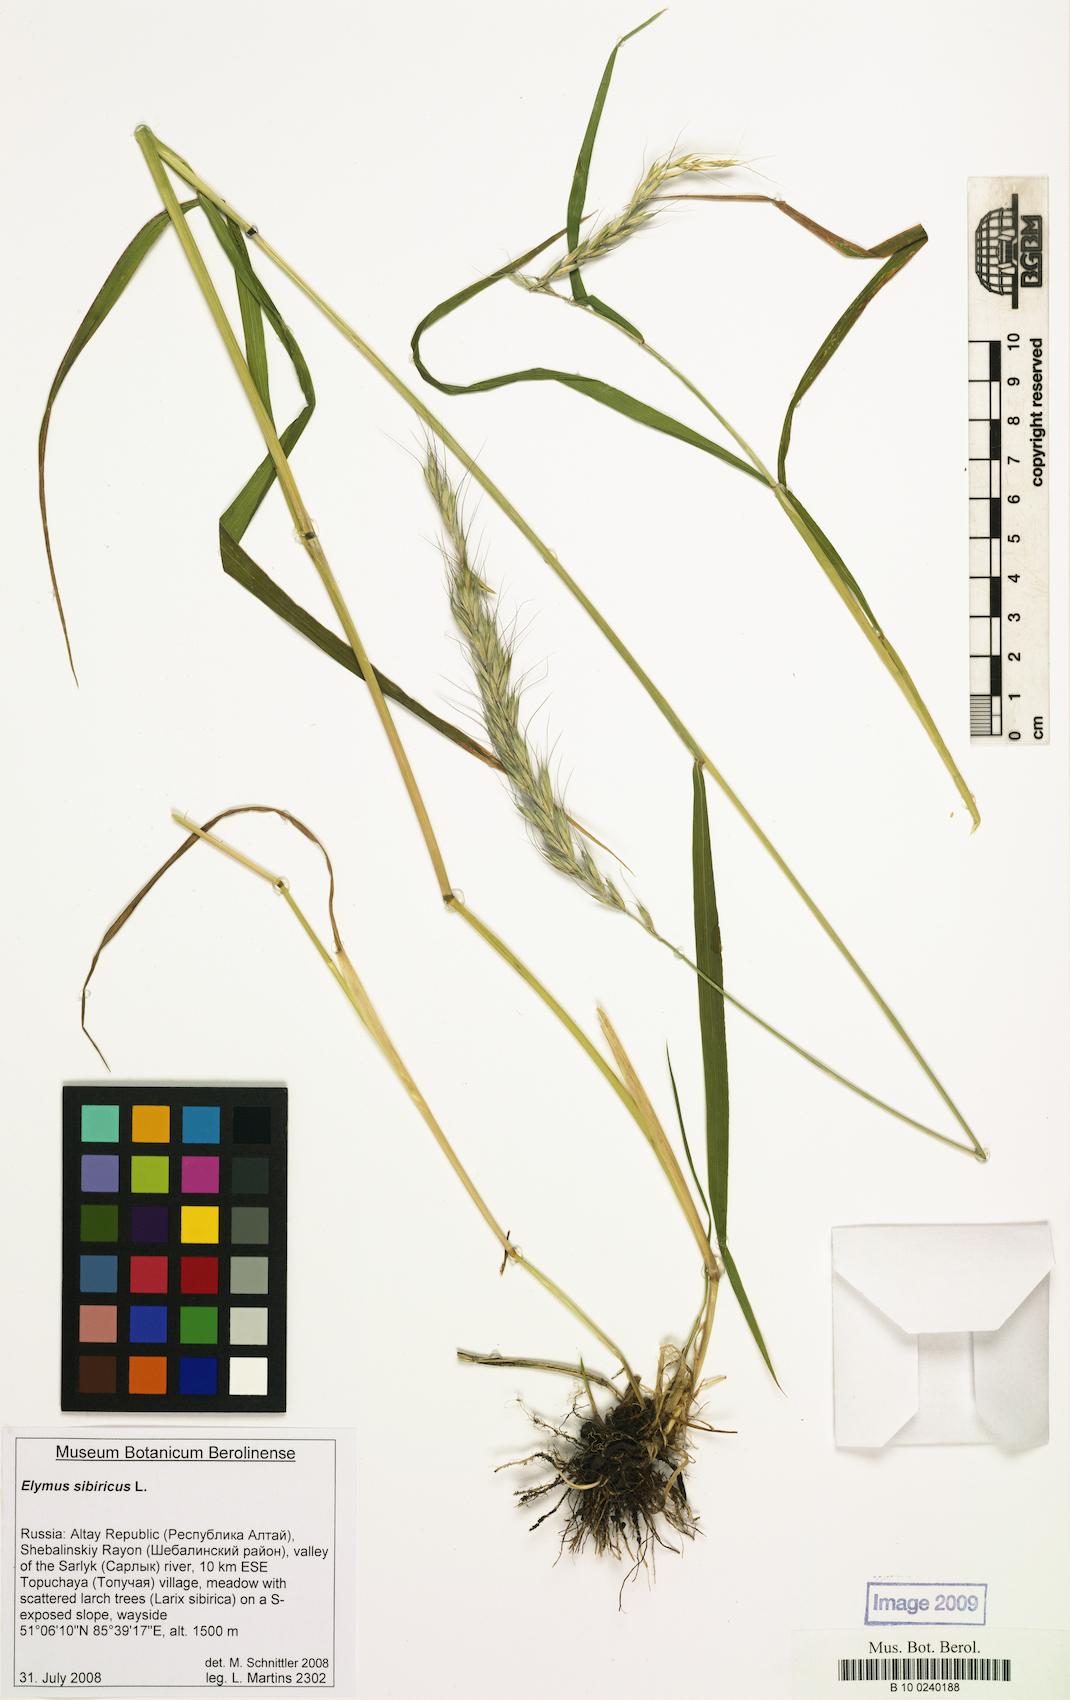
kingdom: Plantae
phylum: Tracheophyta
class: Liliopsida
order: Poales
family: Poaceae
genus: Elymus
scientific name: Elymus sibiricus
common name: Siberian wildrye
